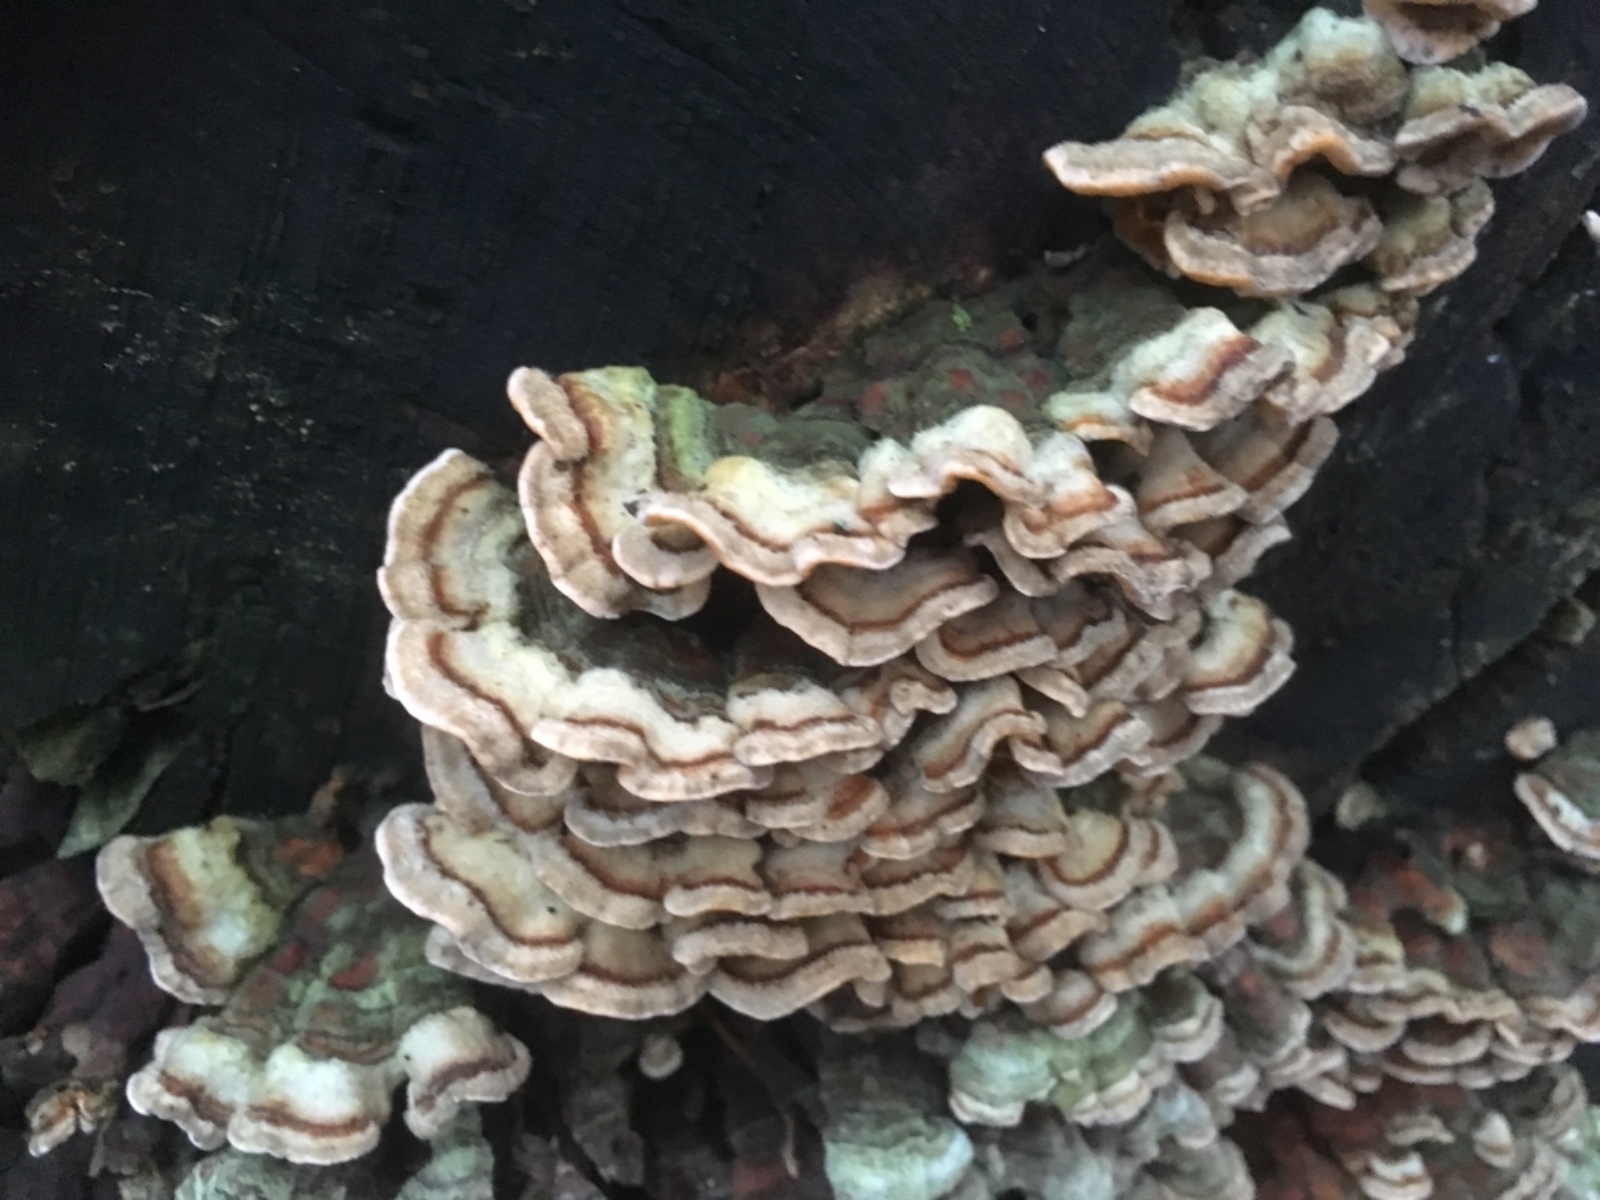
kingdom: Fungi
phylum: Basidiomycota
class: Agaricomycetes
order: Russulales
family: Stereaceae
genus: Stereum
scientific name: Stereum hirsutum
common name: håret lædersvamp
